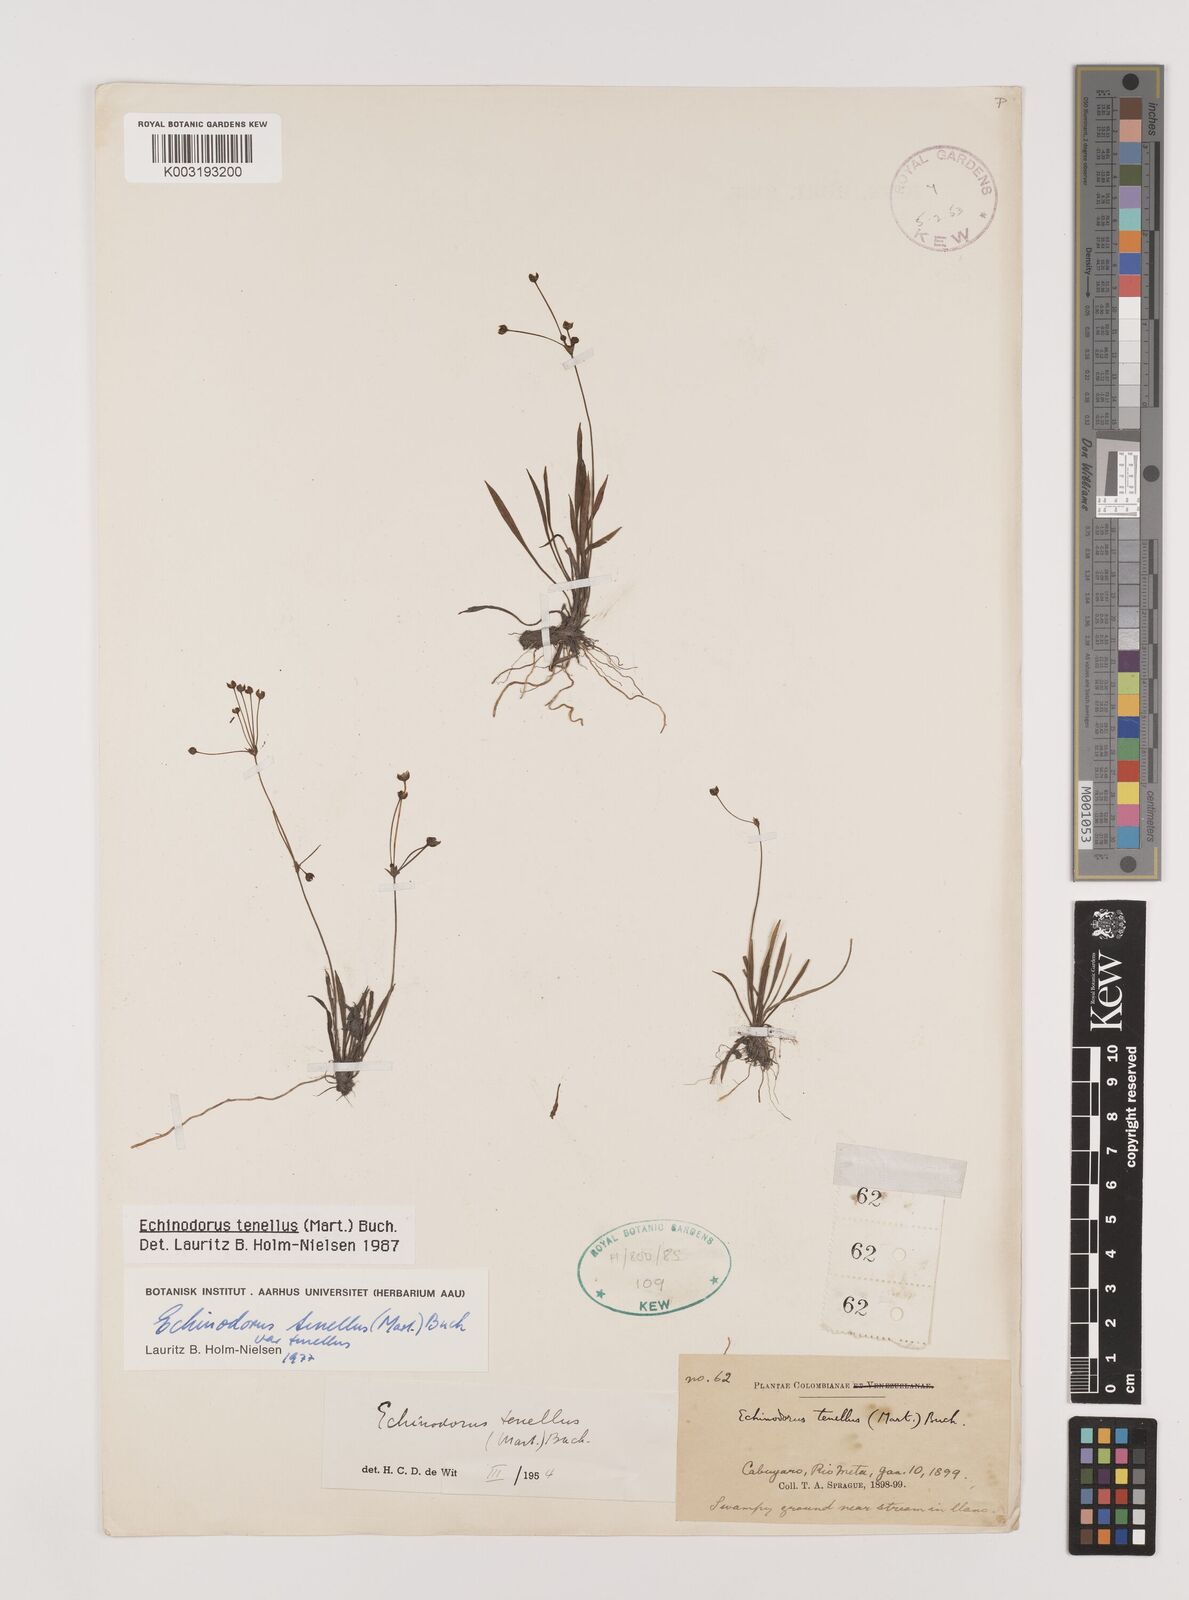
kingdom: Plantae
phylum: Tracheophyta
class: Liliopsida
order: Alismatales
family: Alismataceae
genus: Helanthium
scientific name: Helanthium tenellum
